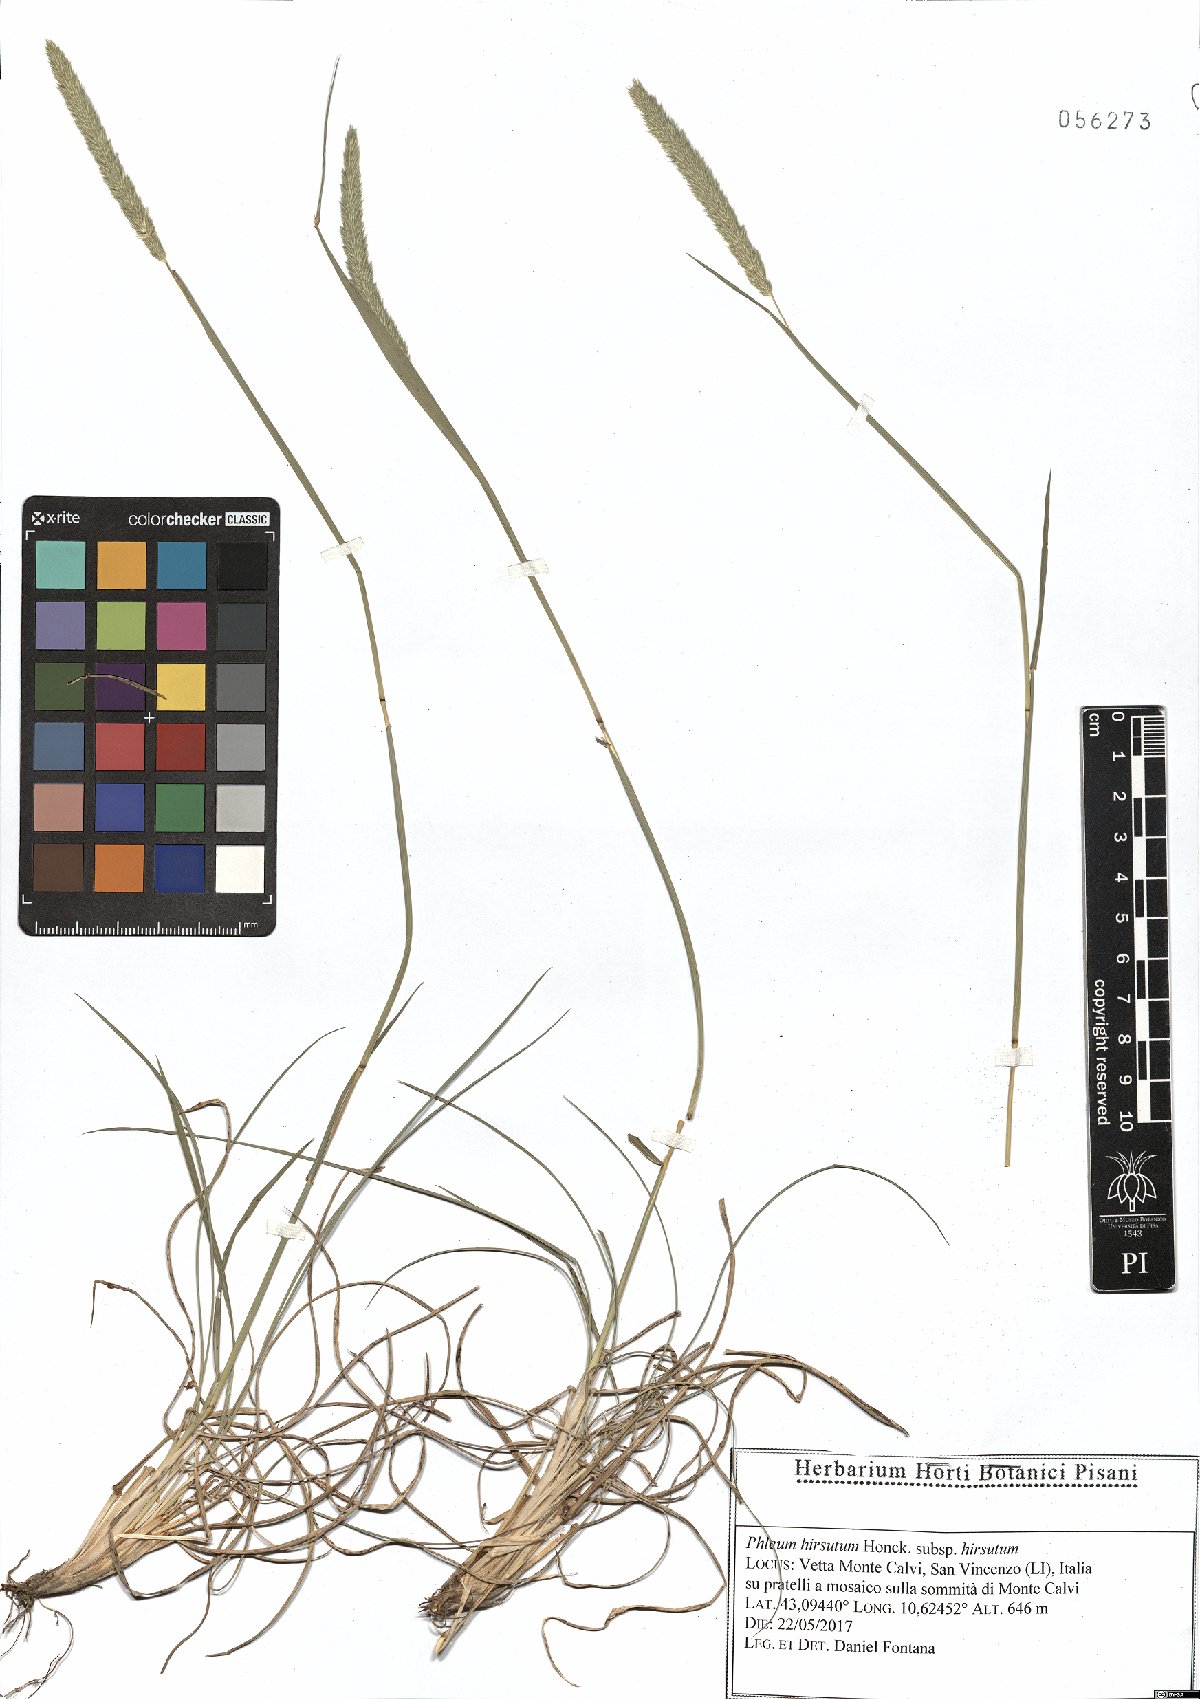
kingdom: Plantae
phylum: Tracheophyta
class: Liliopsida
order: Poales
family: Poaceae
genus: Phleum
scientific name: Phleum hirsutum
